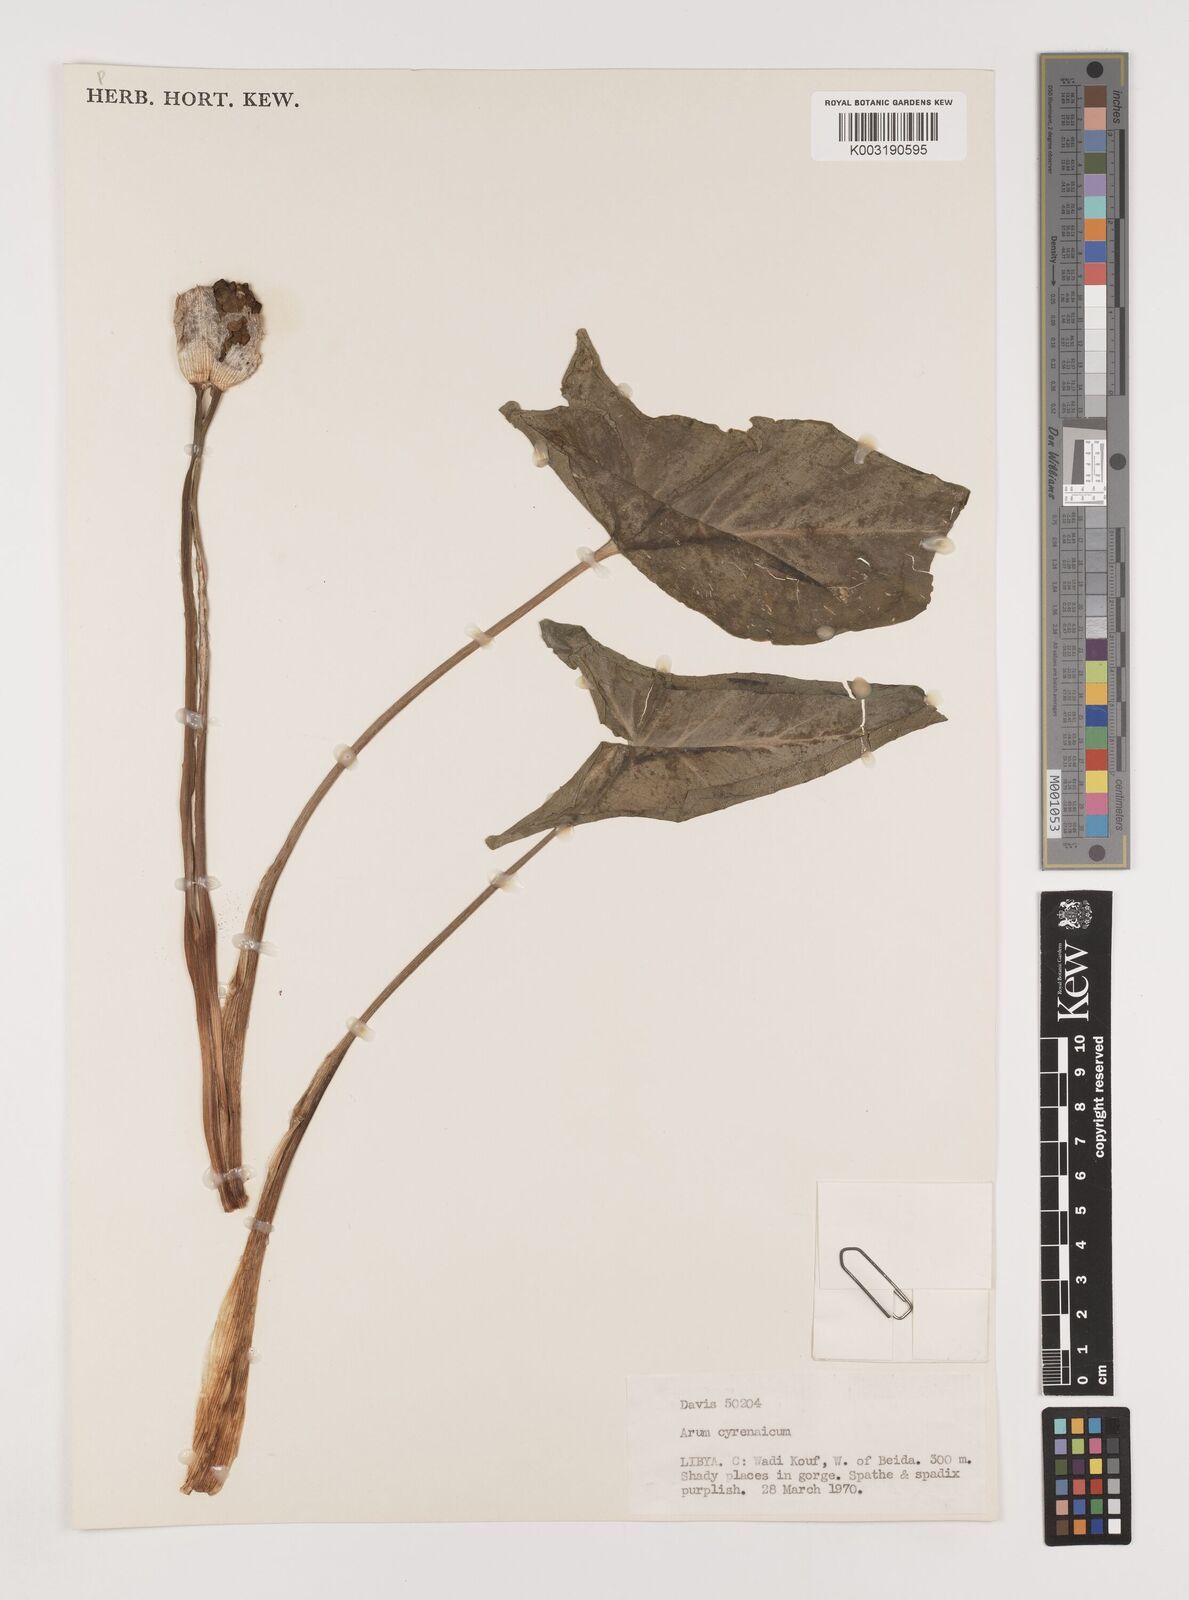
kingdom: Plantae
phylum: Tracheophyta
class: Liliopsida
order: Alismatales
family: Araceae
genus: Arum
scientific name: Arum cyrenaicum
